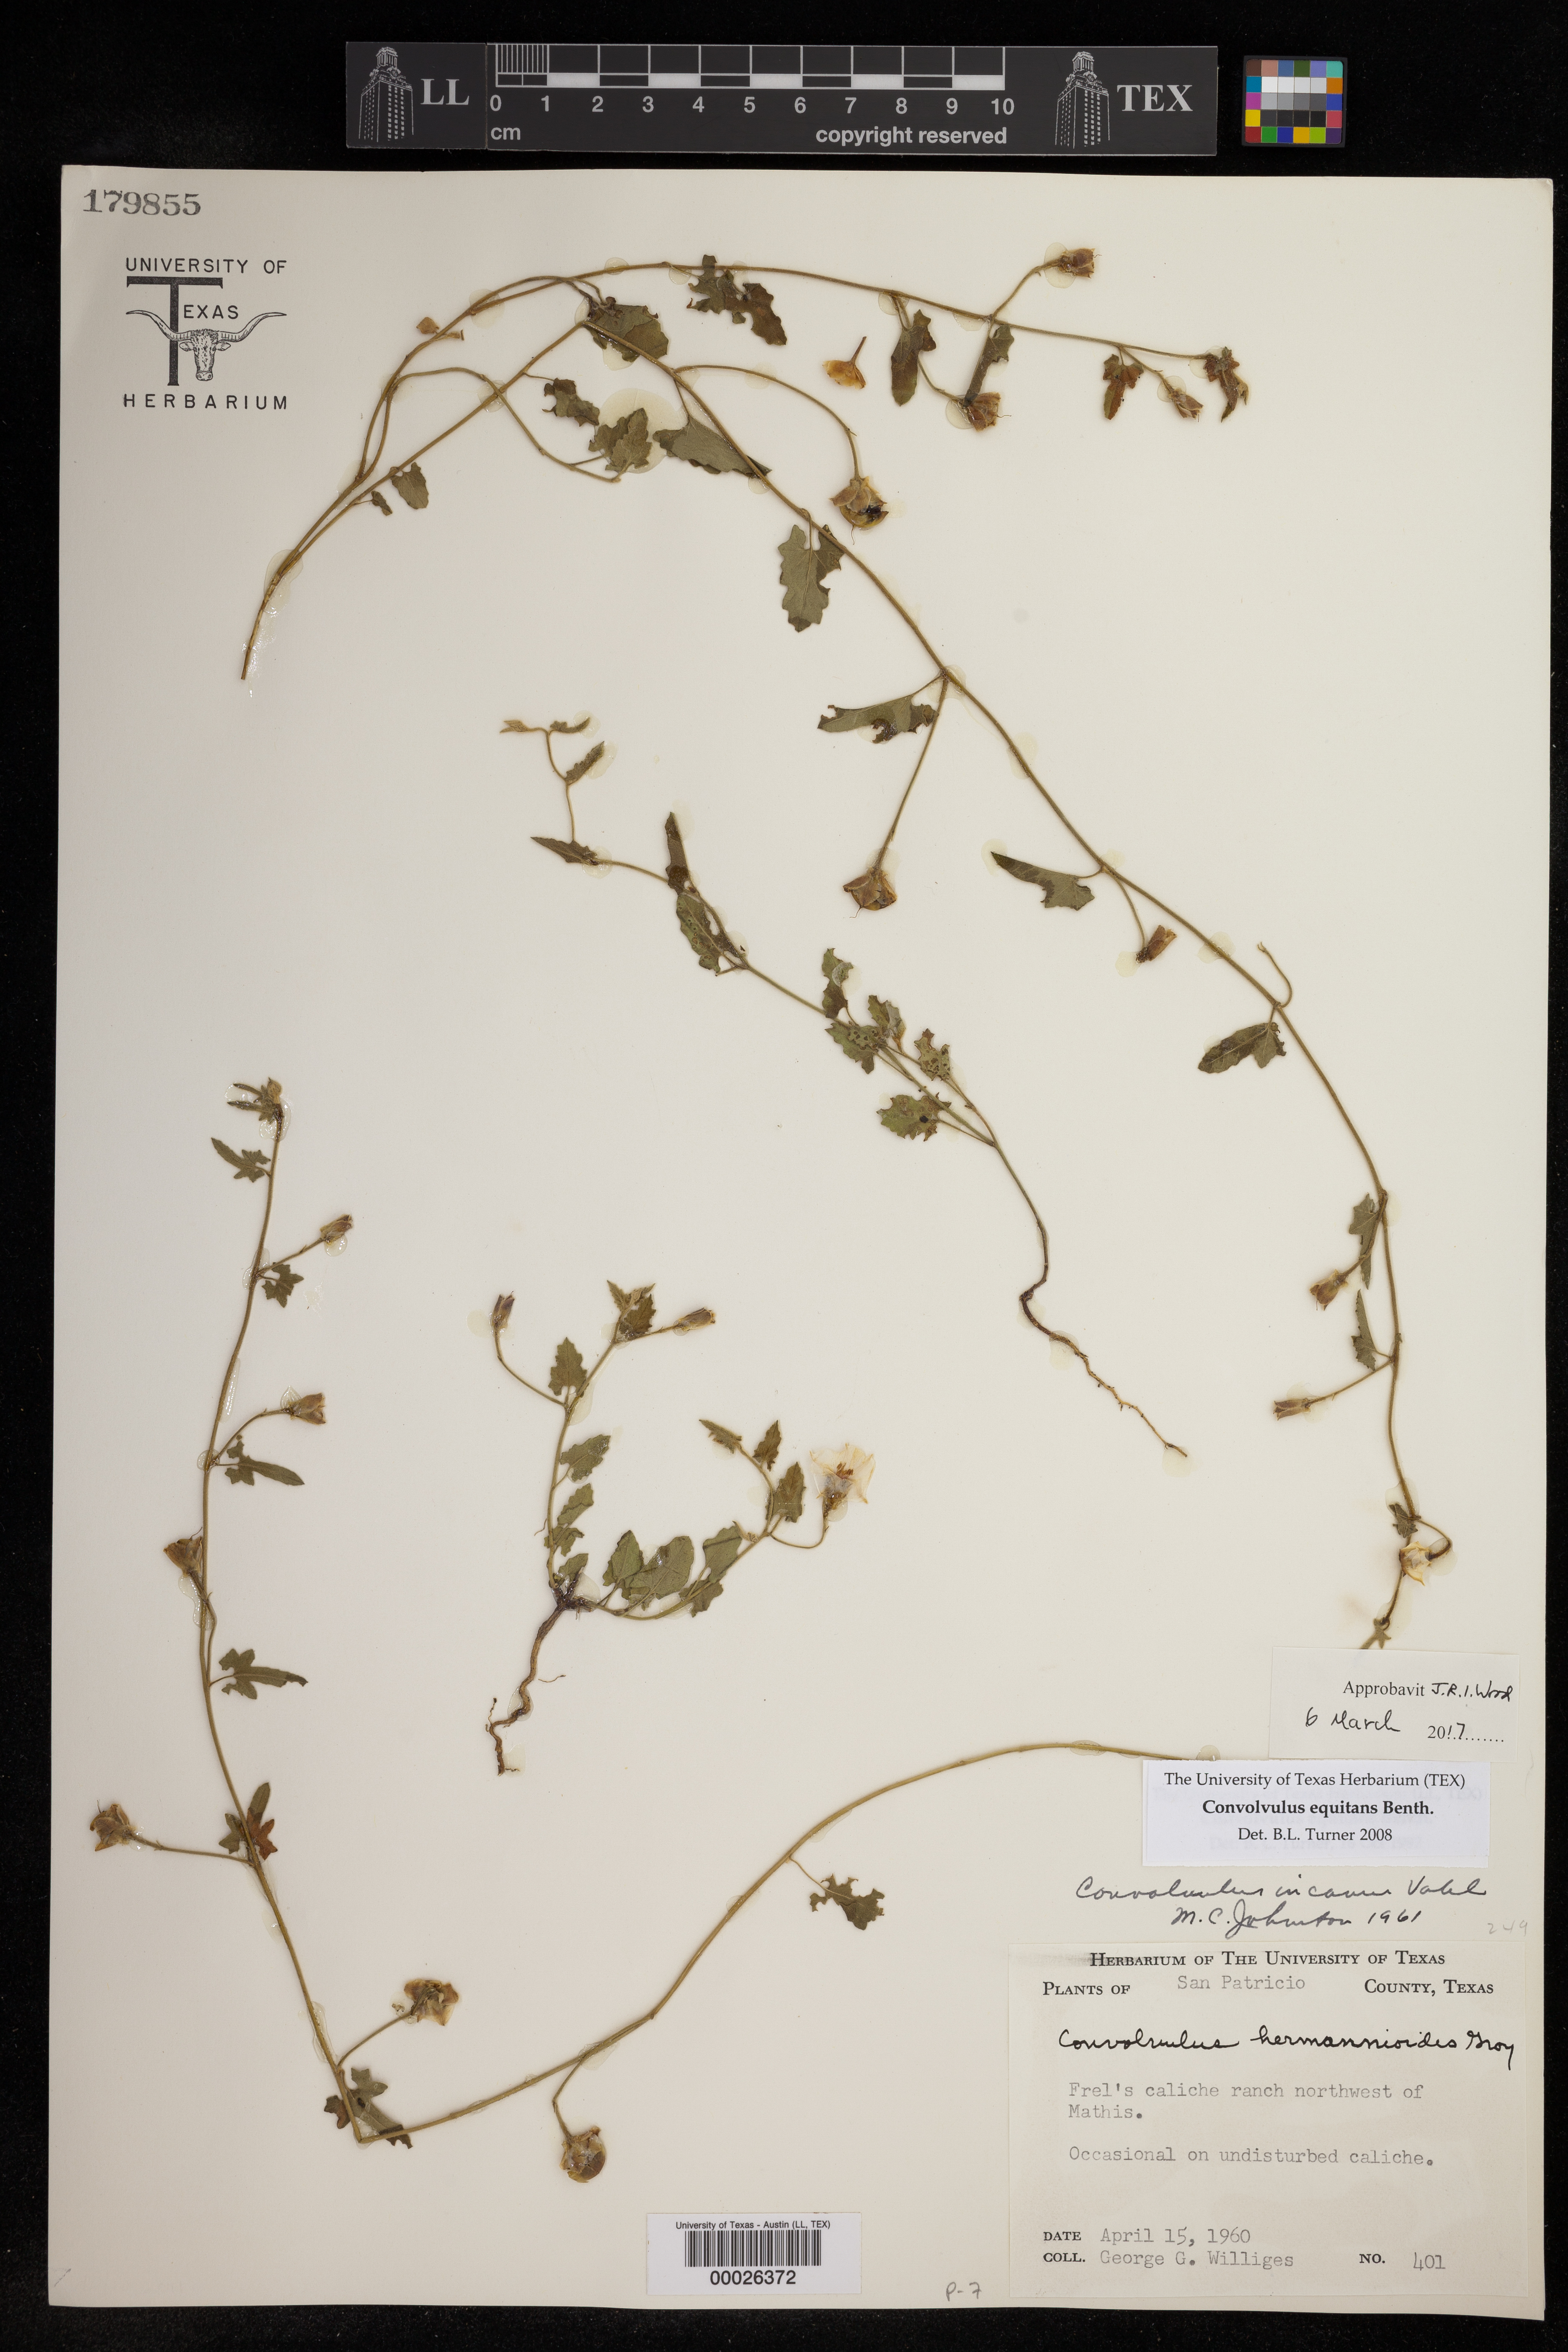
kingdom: Plantae
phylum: Tracheophyta
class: Magnoliopsida
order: Solanales
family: Convolvulaceae
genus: Convolvulus
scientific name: Convolvulus equitans
